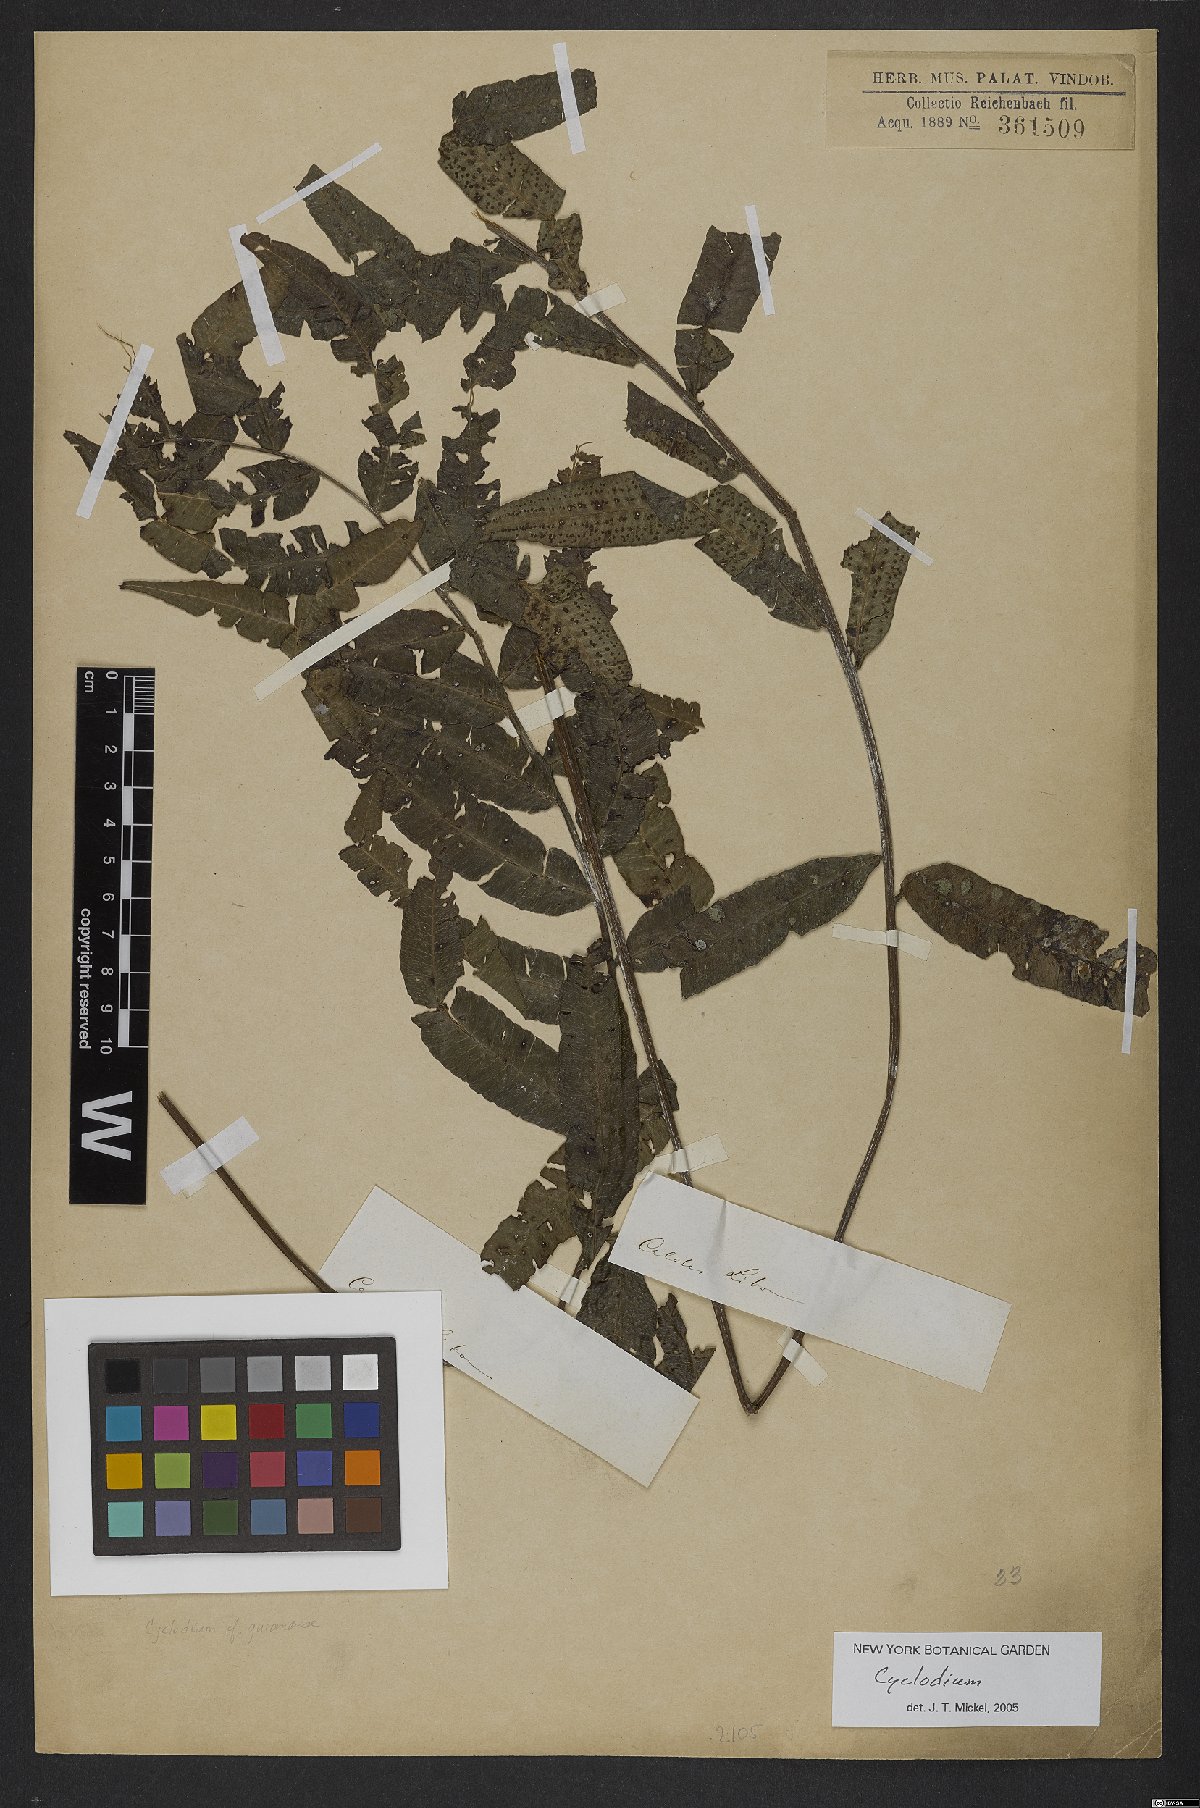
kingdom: Plantae
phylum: Tracheophyta
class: Polypodiopsida
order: Polypodiales
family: Dryopteridaceae
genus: Cyclodium
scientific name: Cyclodium
